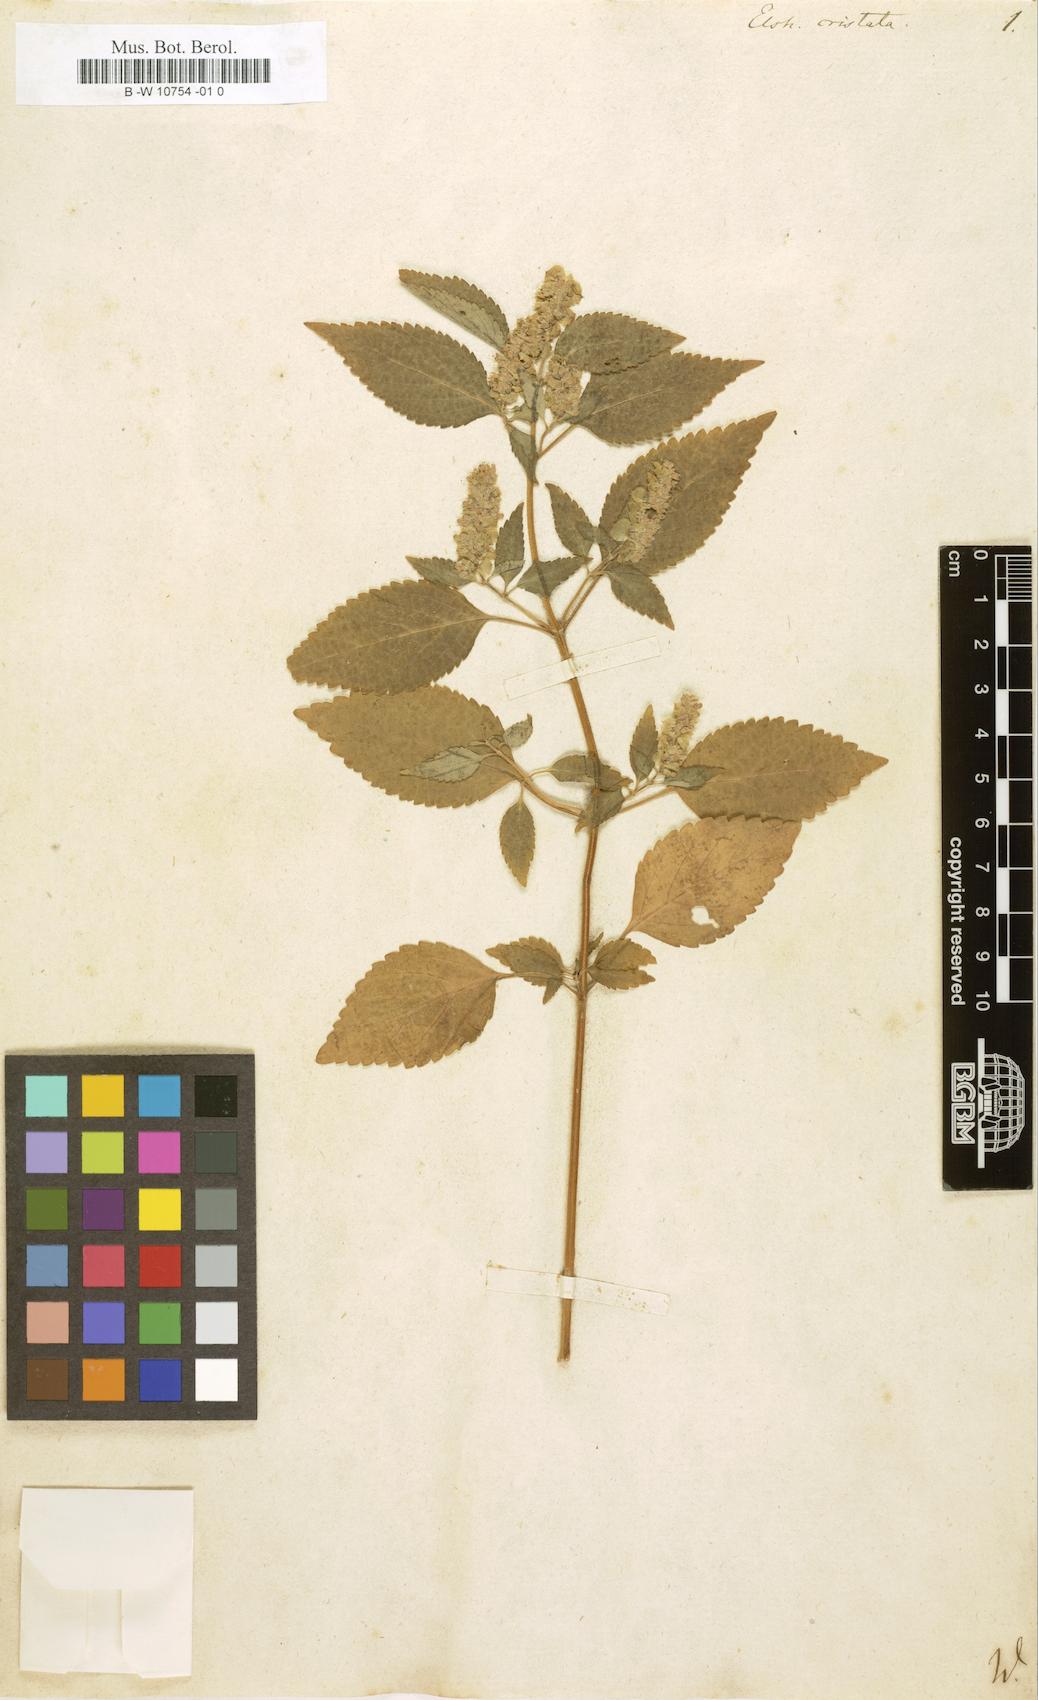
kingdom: Plantae
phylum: Tracheophyta
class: Magnoliopsida
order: Lamiales
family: Lamiaceae
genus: Elsholtzia
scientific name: Elsholtzia ciliata
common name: Ciliate elsholtzia
